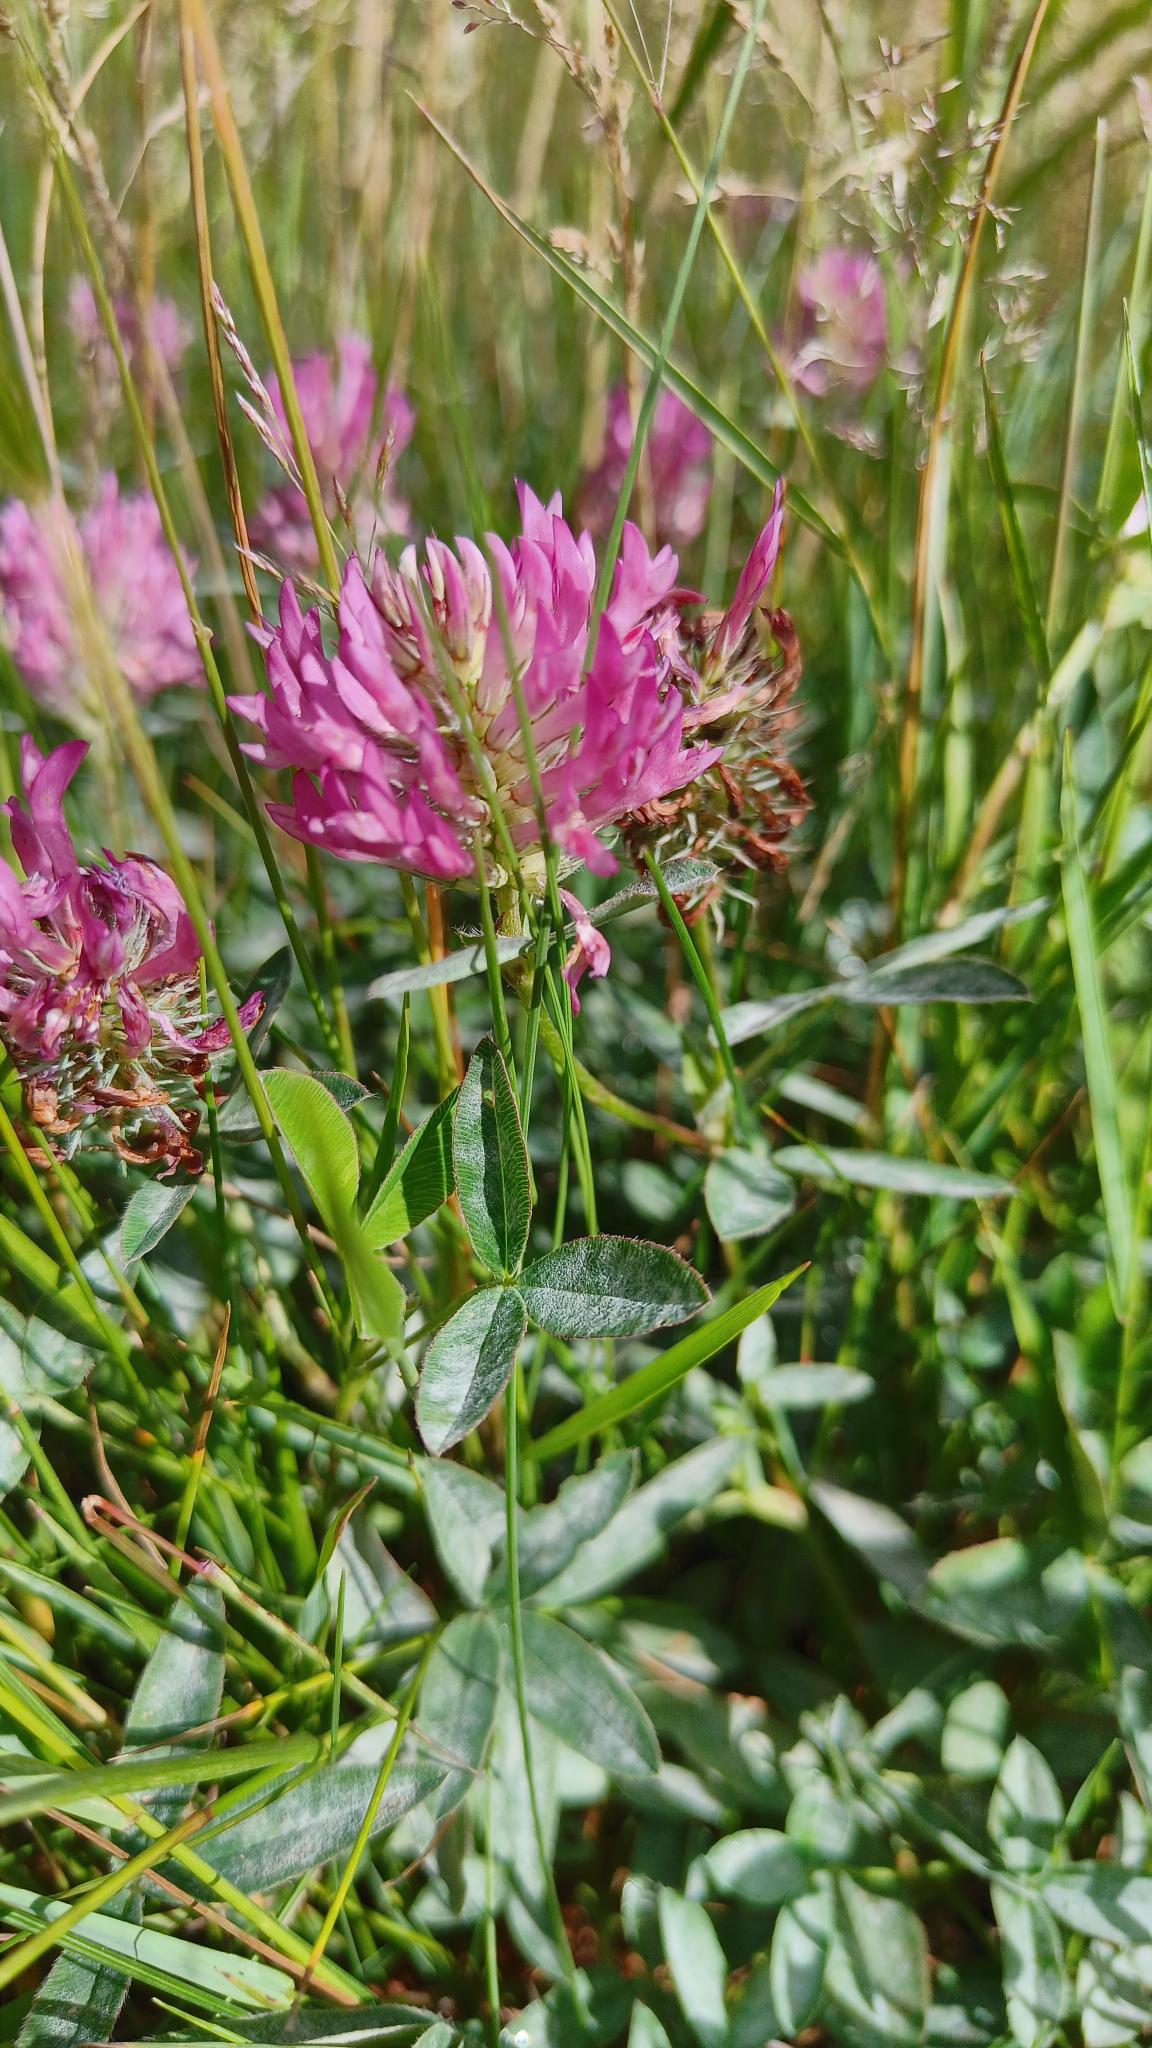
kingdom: Plantae
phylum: Tracheophyta
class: Magnoliopsida
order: Fabales
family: Fabaceae
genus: Trifolium
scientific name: Trifolium medium
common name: Bugtet kløver
